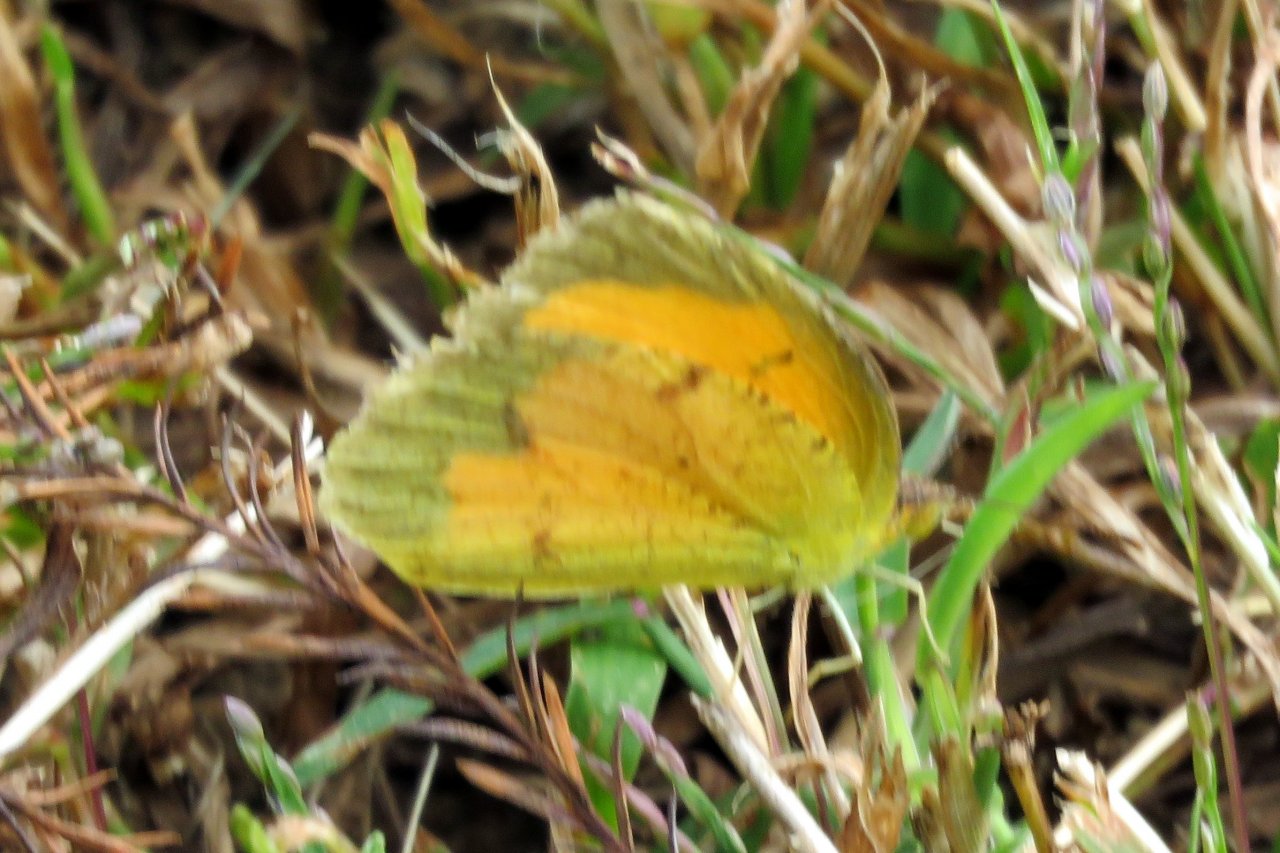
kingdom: Animalia
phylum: Arthropoda
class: Insecta
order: Lepidoptera
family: Pieridae
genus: Abaeis
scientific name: Abaeis nicippe
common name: Sleepy Orange
